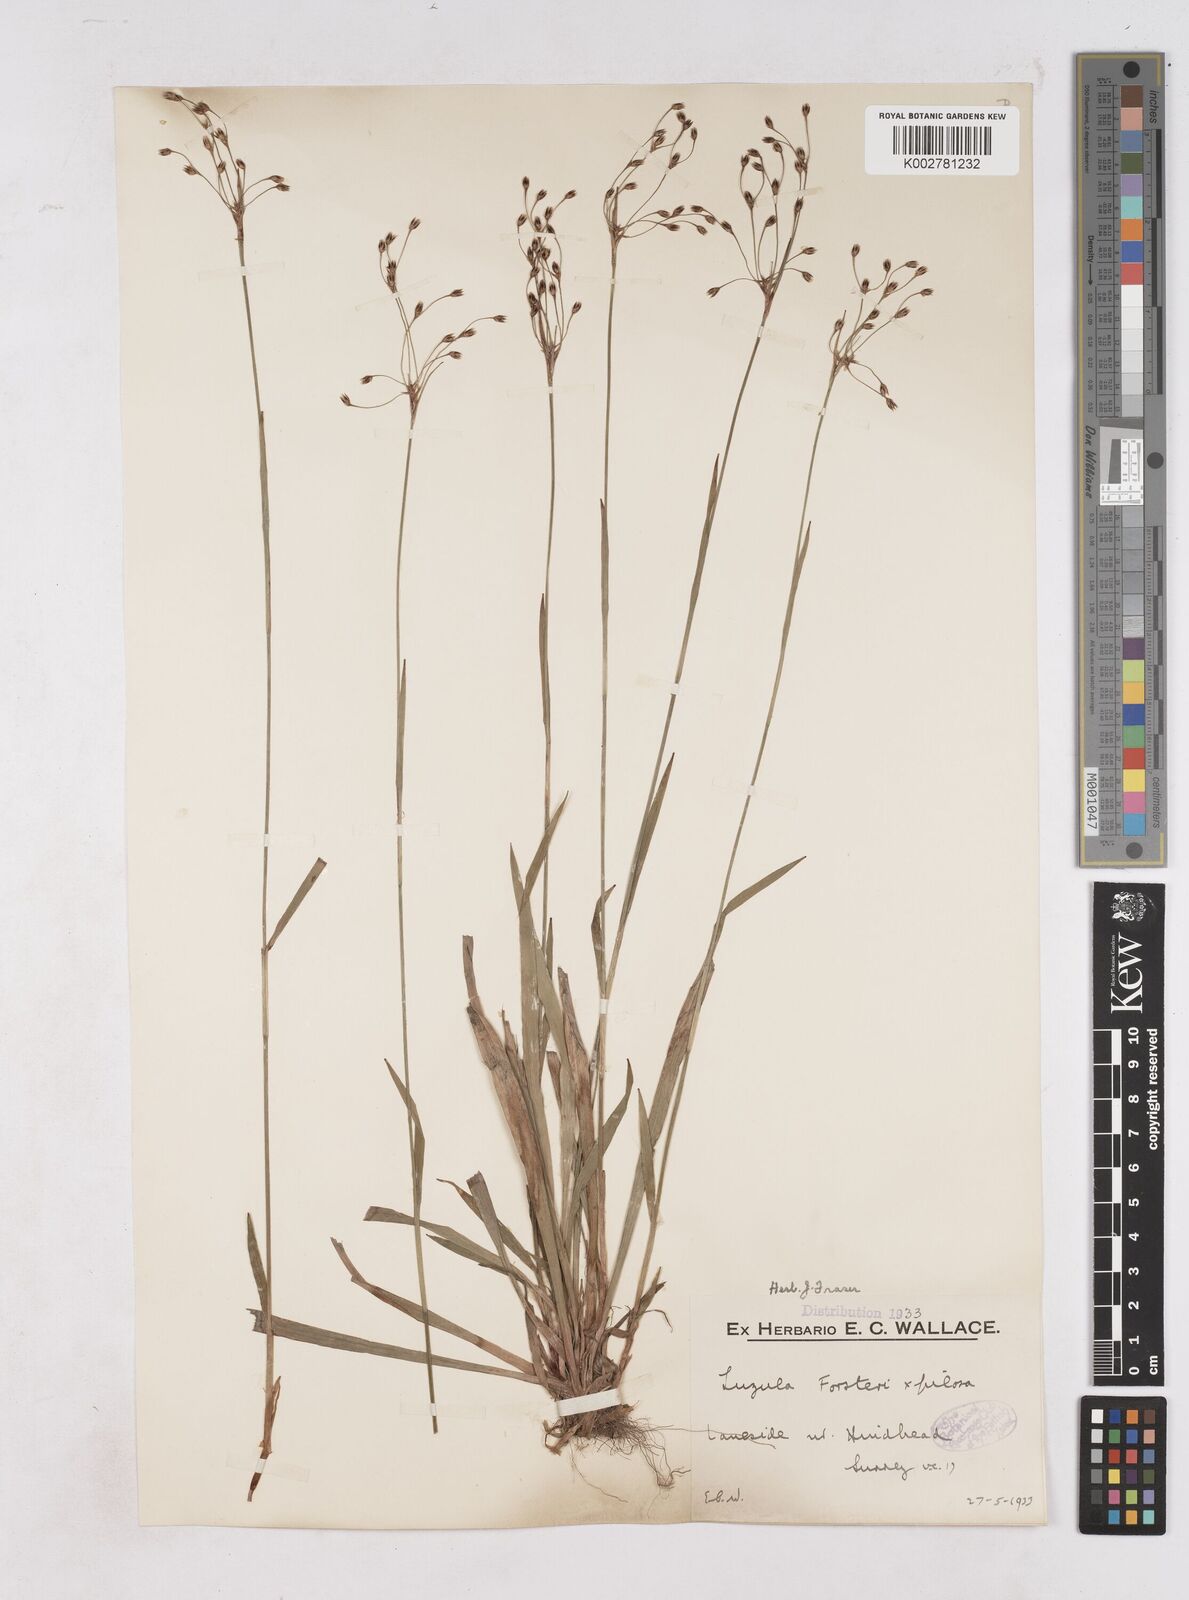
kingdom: Plantae
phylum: Tracheophyta
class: Liliopsida
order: Poales
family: Juncaceae
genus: Luzula
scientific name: Luzula forsteri
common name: Southern wood-rush
